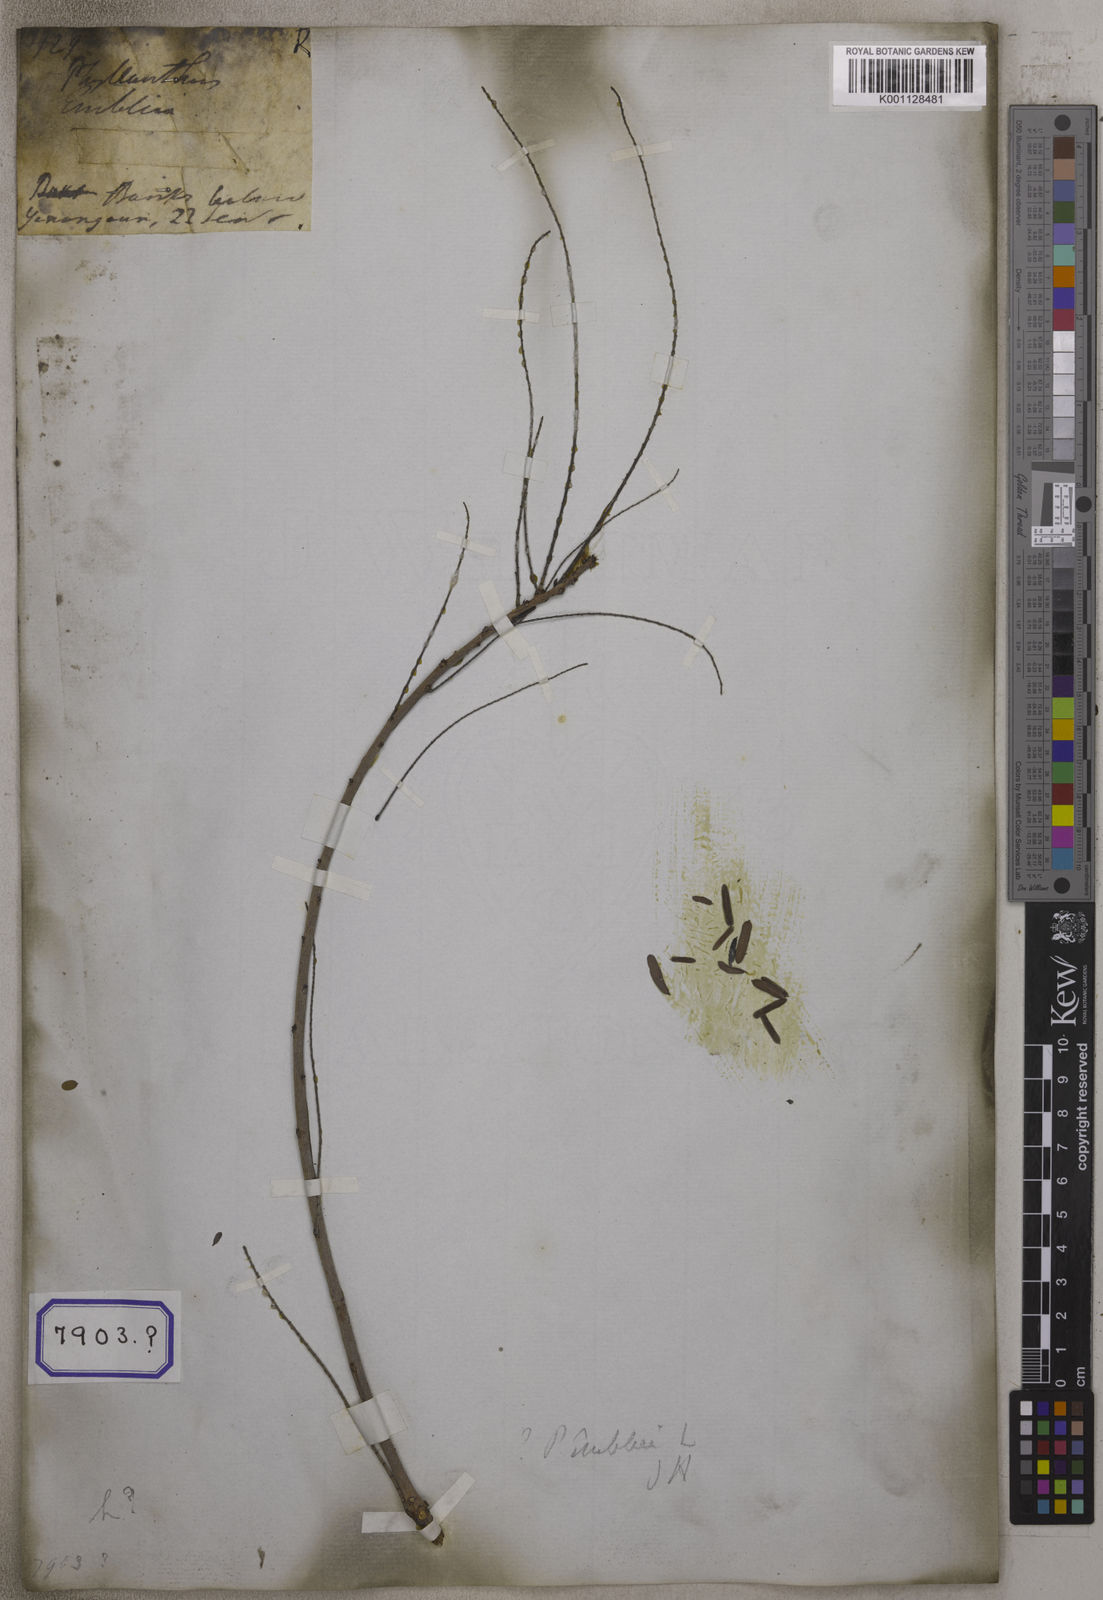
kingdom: Plantae
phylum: Tracheophyta
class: Magnoliopsida
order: Malpighiales
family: Euphorbiaceae
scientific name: Euphorbiaceae
